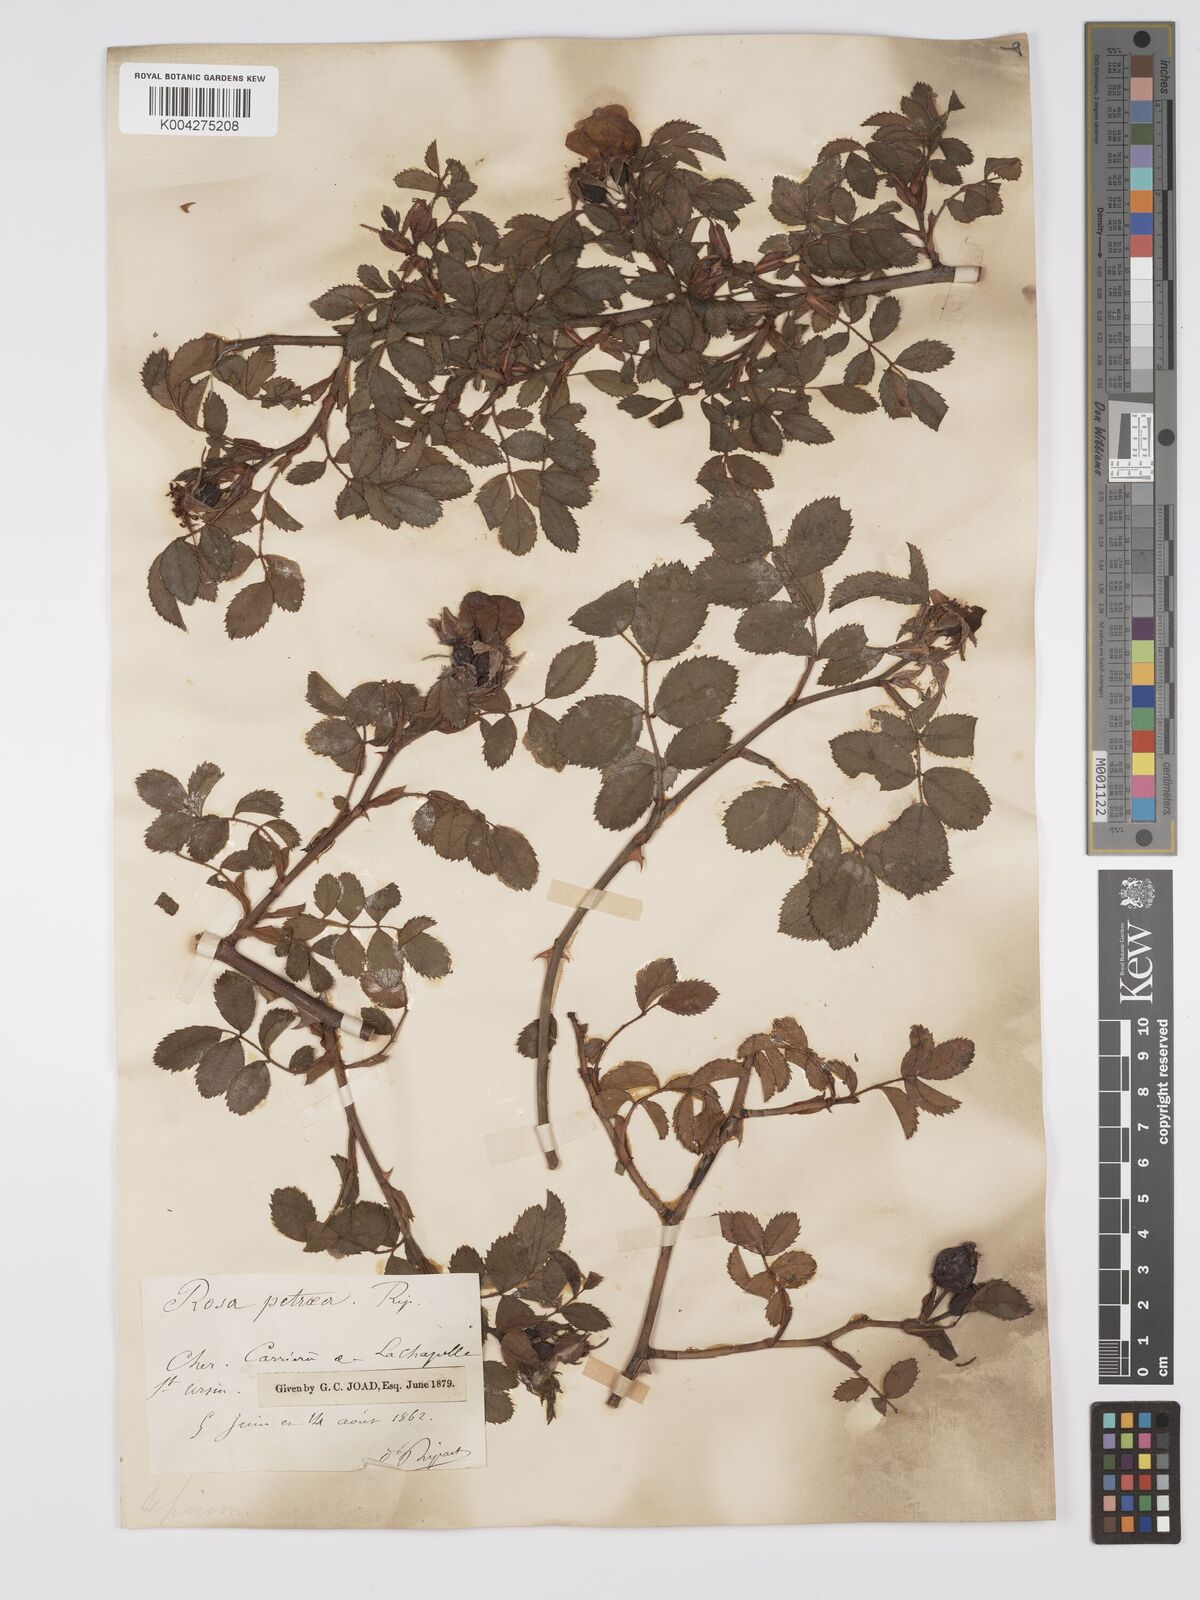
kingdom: Plantae
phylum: Tracheophyta
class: Magnoliopsida
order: Rosales
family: Rosaceae
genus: Rosa
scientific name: Rosa
